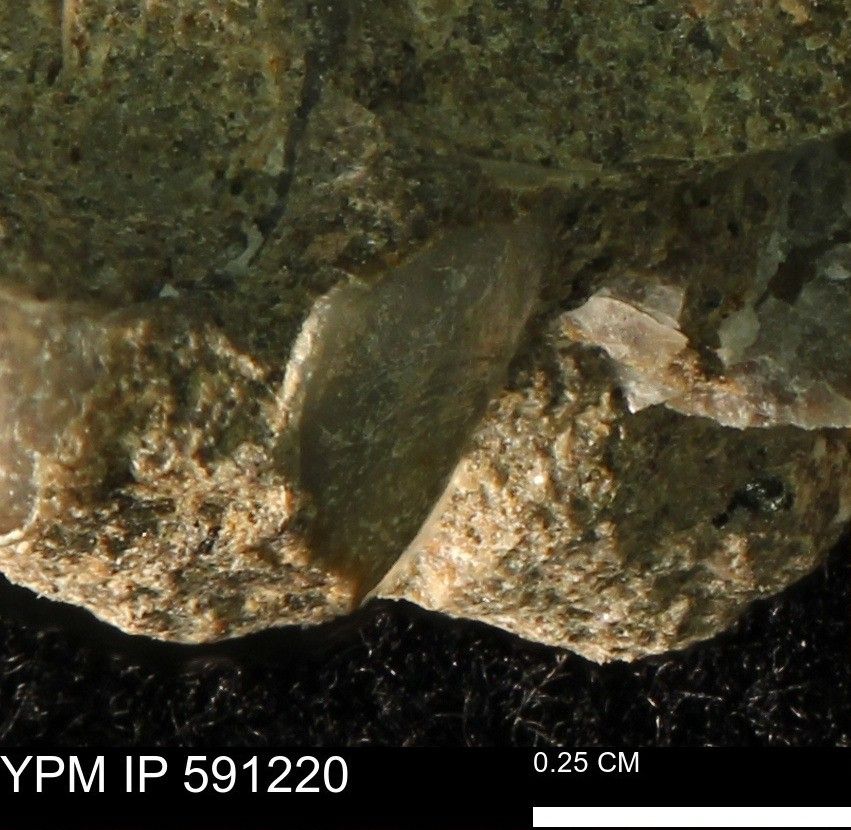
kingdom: Animalia
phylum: Mollusca
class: Bivalvia
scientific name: Bivalvia
